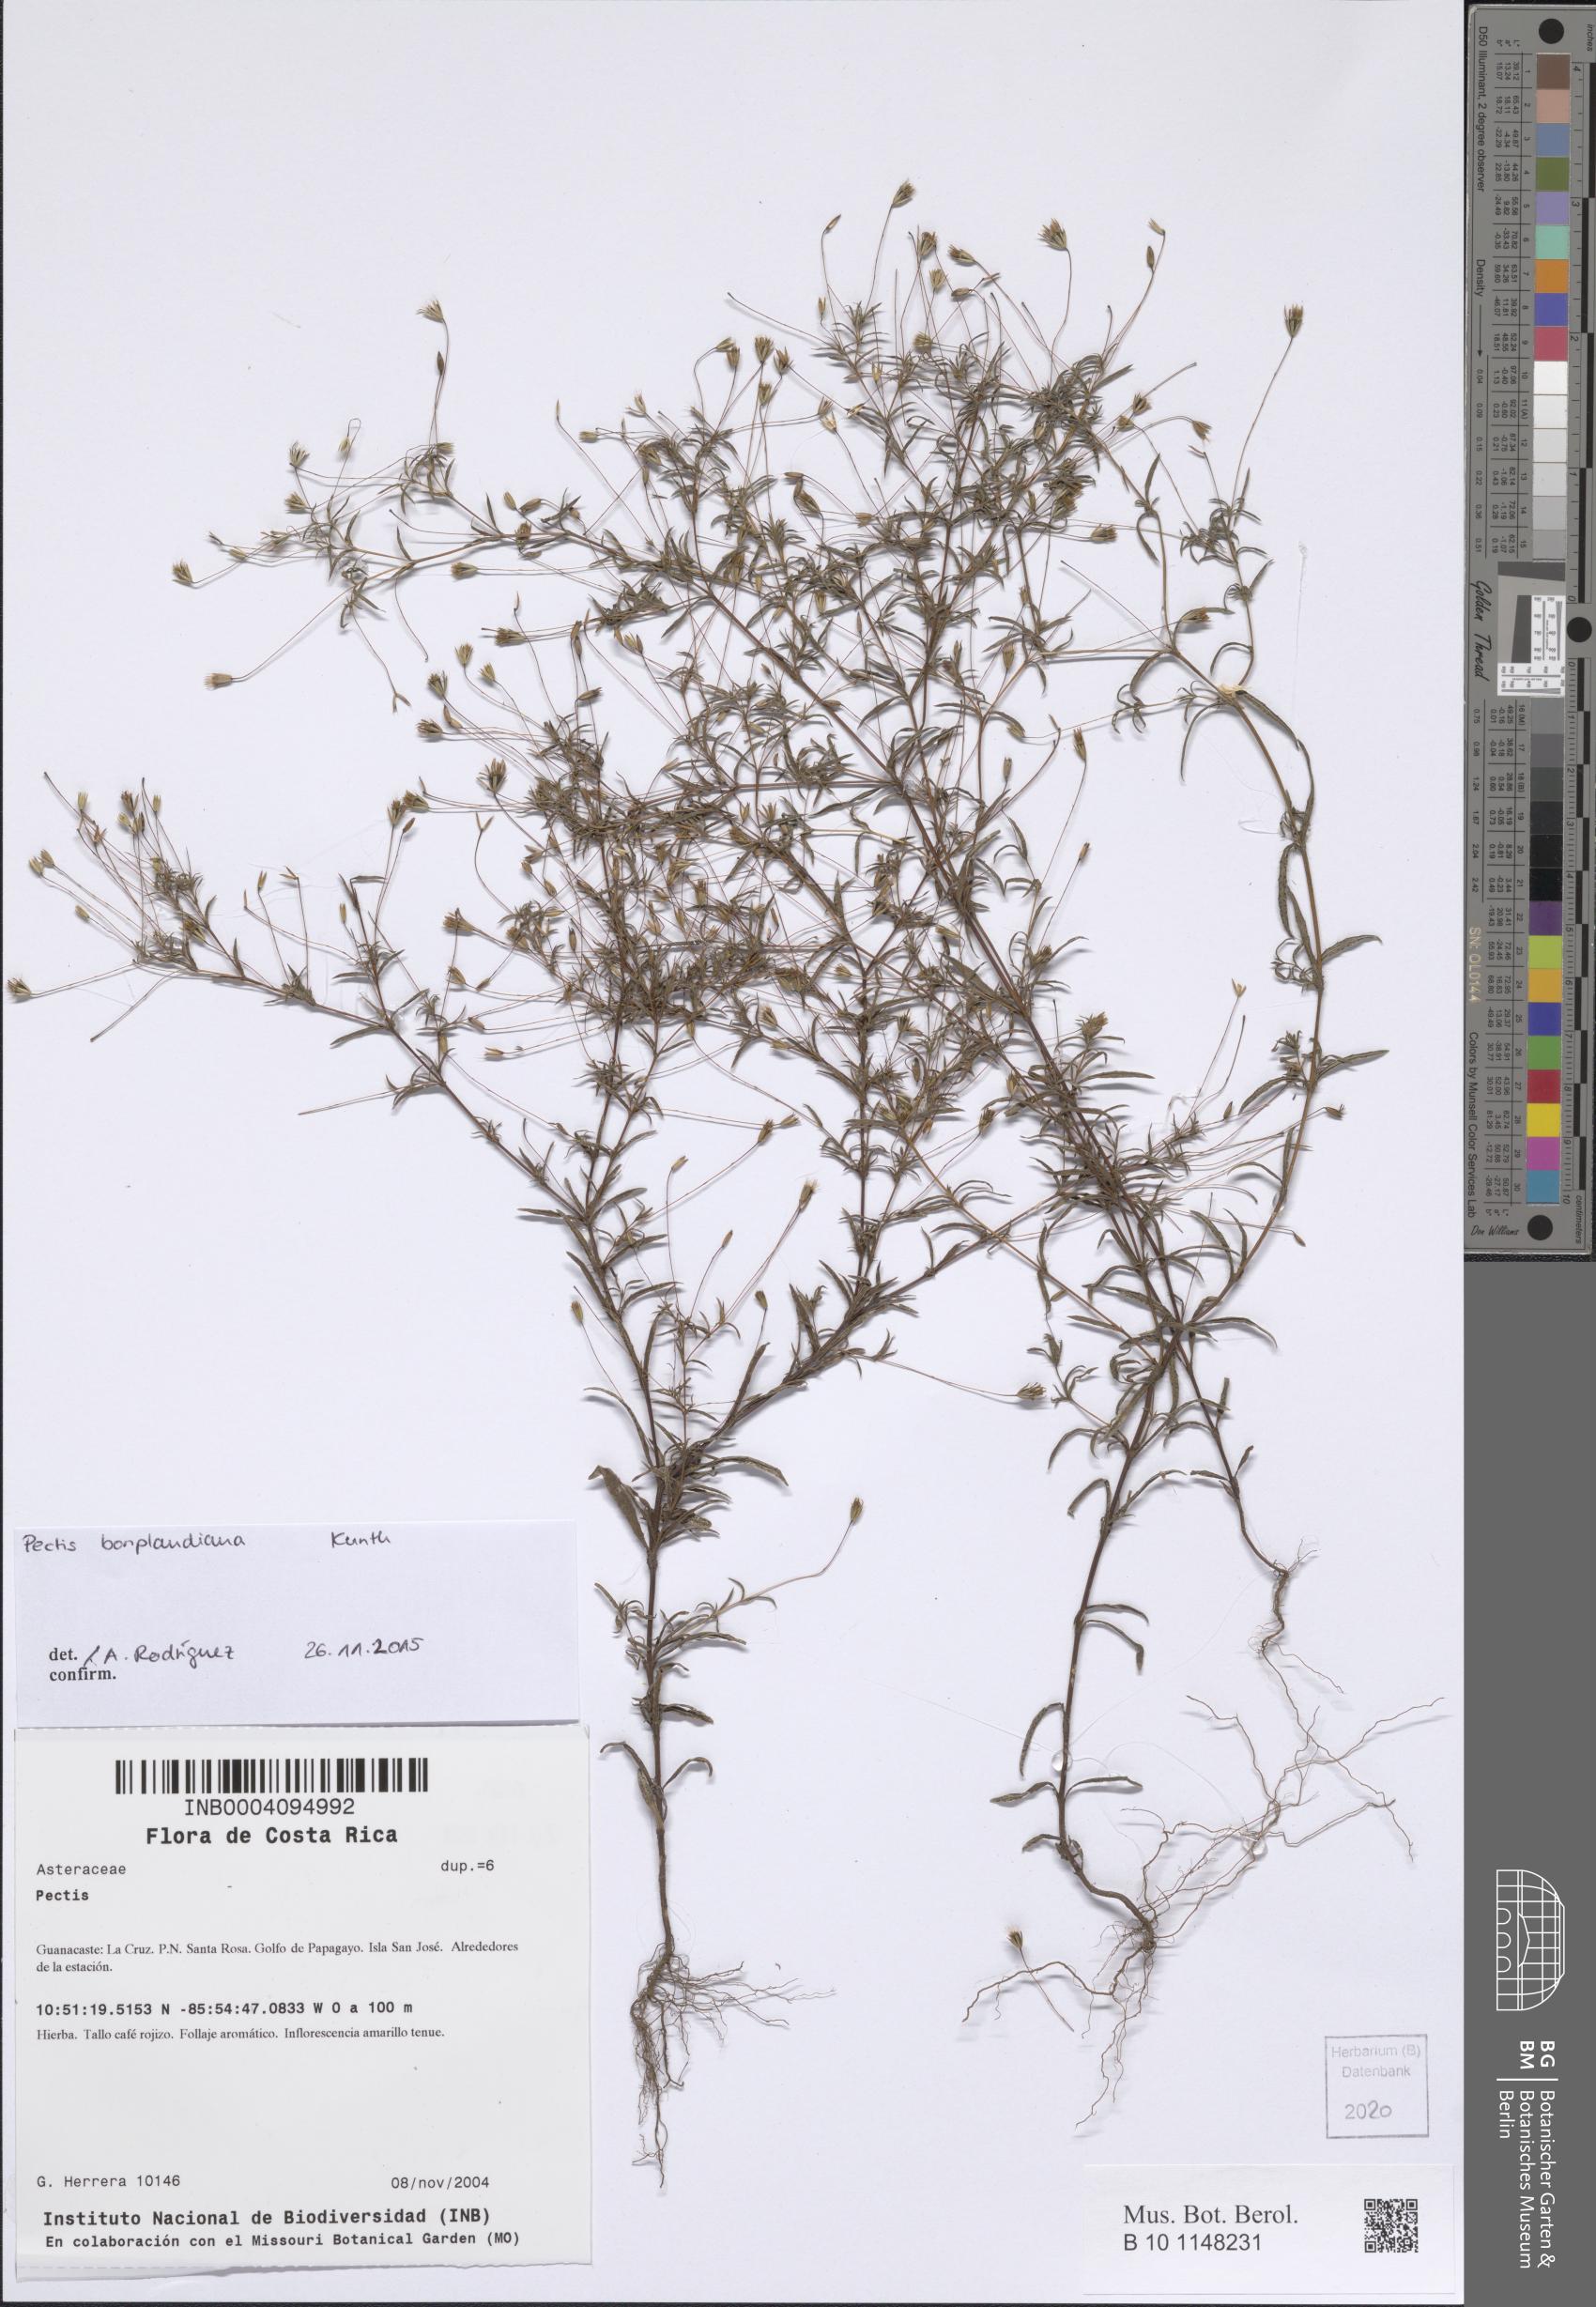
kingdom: Plantae
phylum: Tracheophyta
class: Magnoliopsida
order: Asterales
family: Asteraceae
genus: Pectis
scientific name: Pectis bonplandiana
